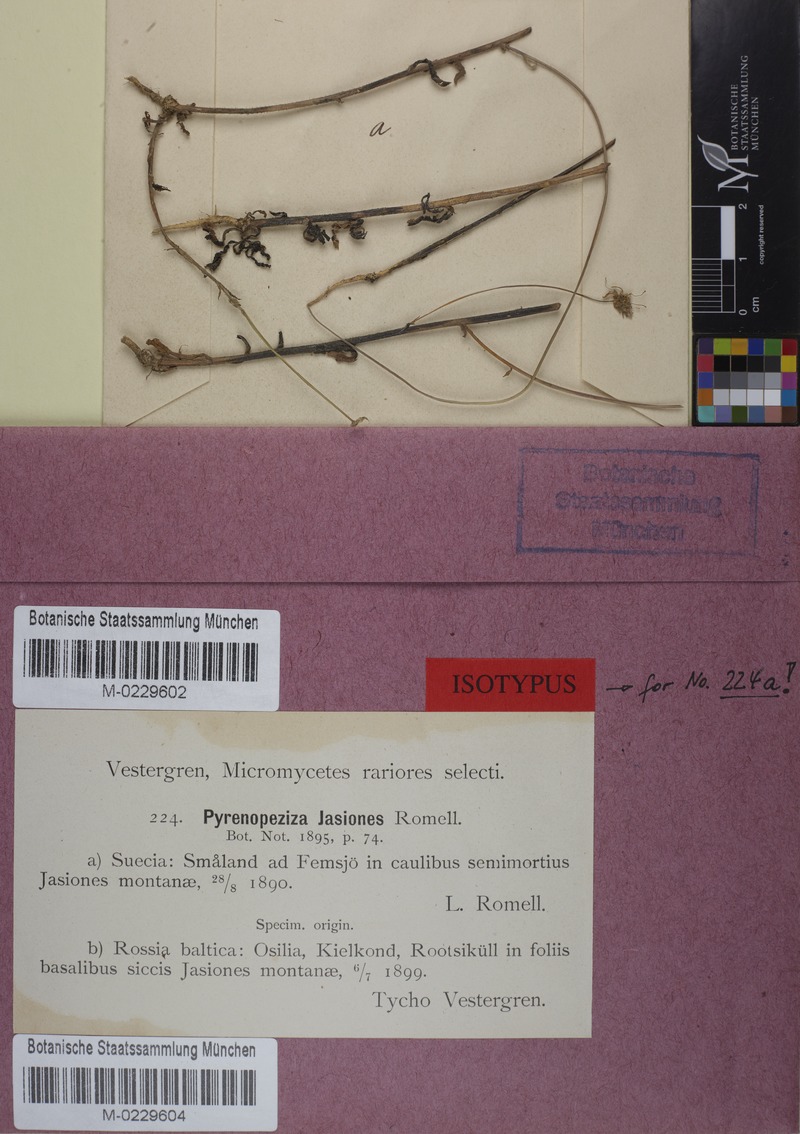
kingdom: Fungi
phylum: Ascomycota
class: Leotiomycetes
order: Helotiales
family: Drepanopezizaceae
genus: Pseudopeziza
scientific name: Pseudopeziza jasiones
